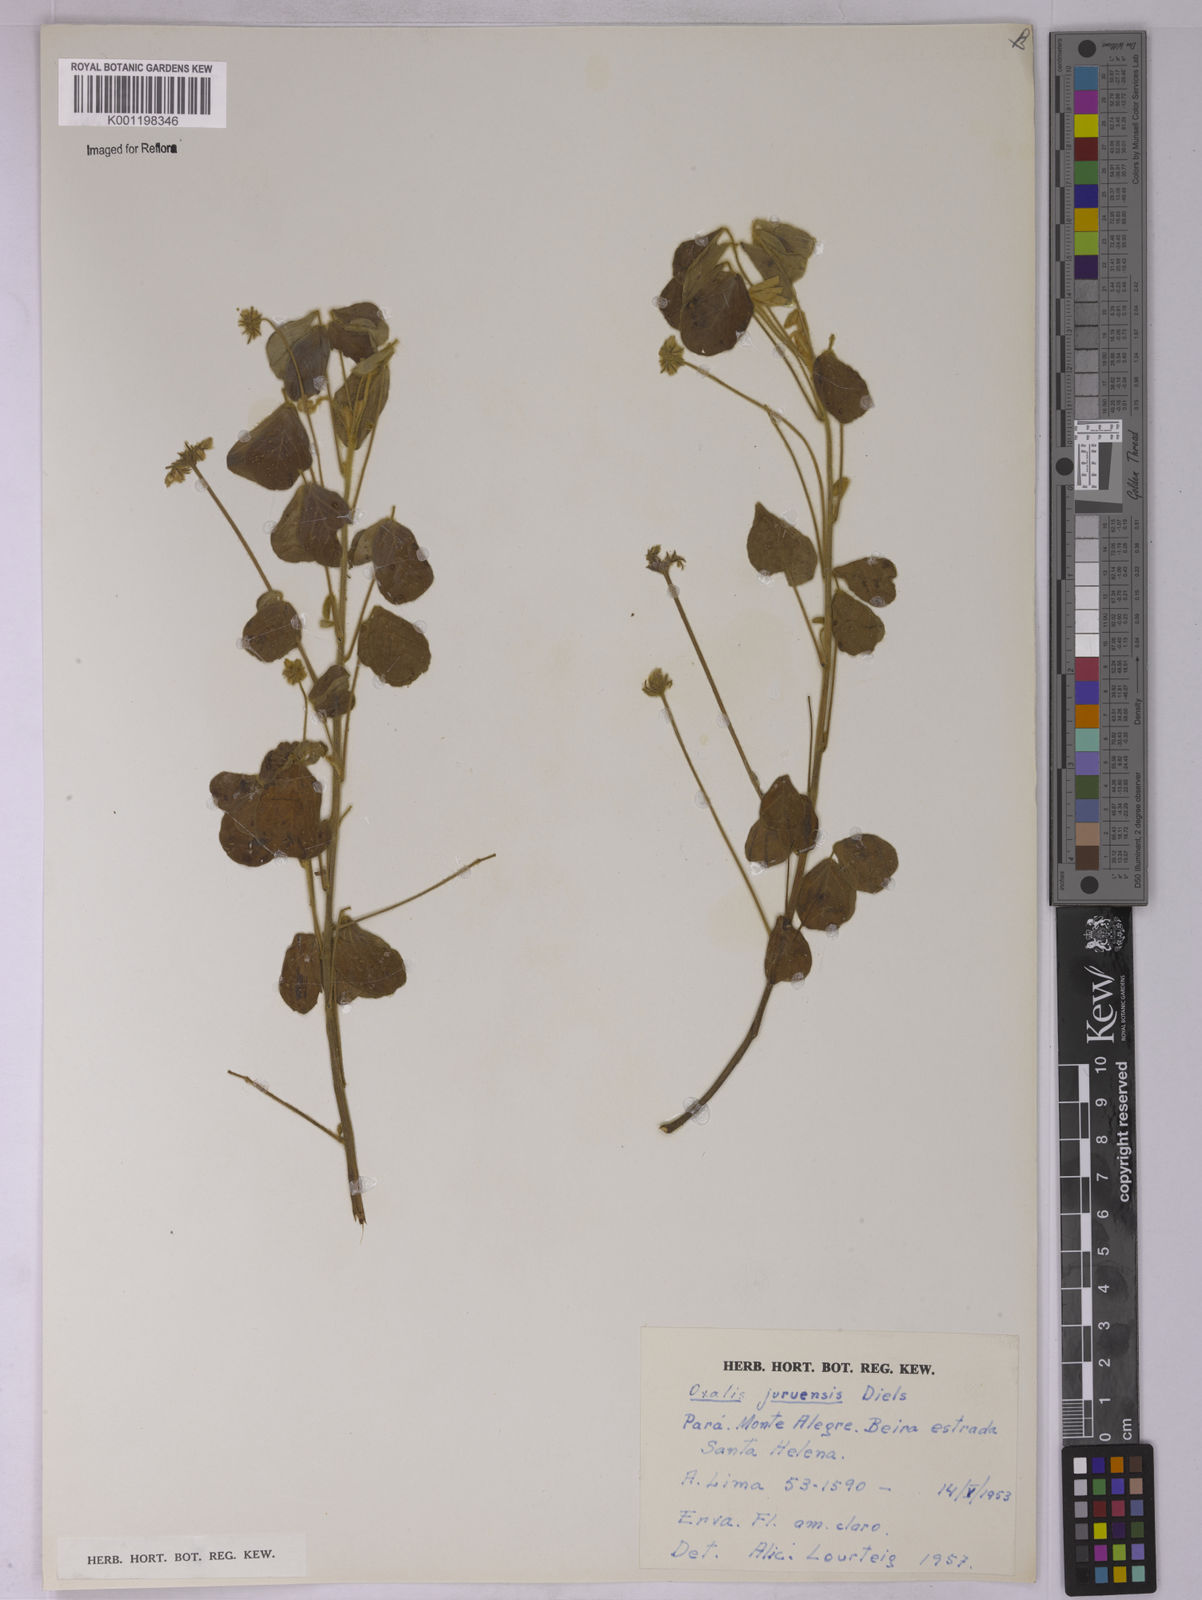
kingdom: Plantae
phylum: Tracheophyta
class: Magnoliopsida
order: Oxalidales
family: Oxalidaceae
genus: Oxalis
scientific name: Oxalis juruensis
